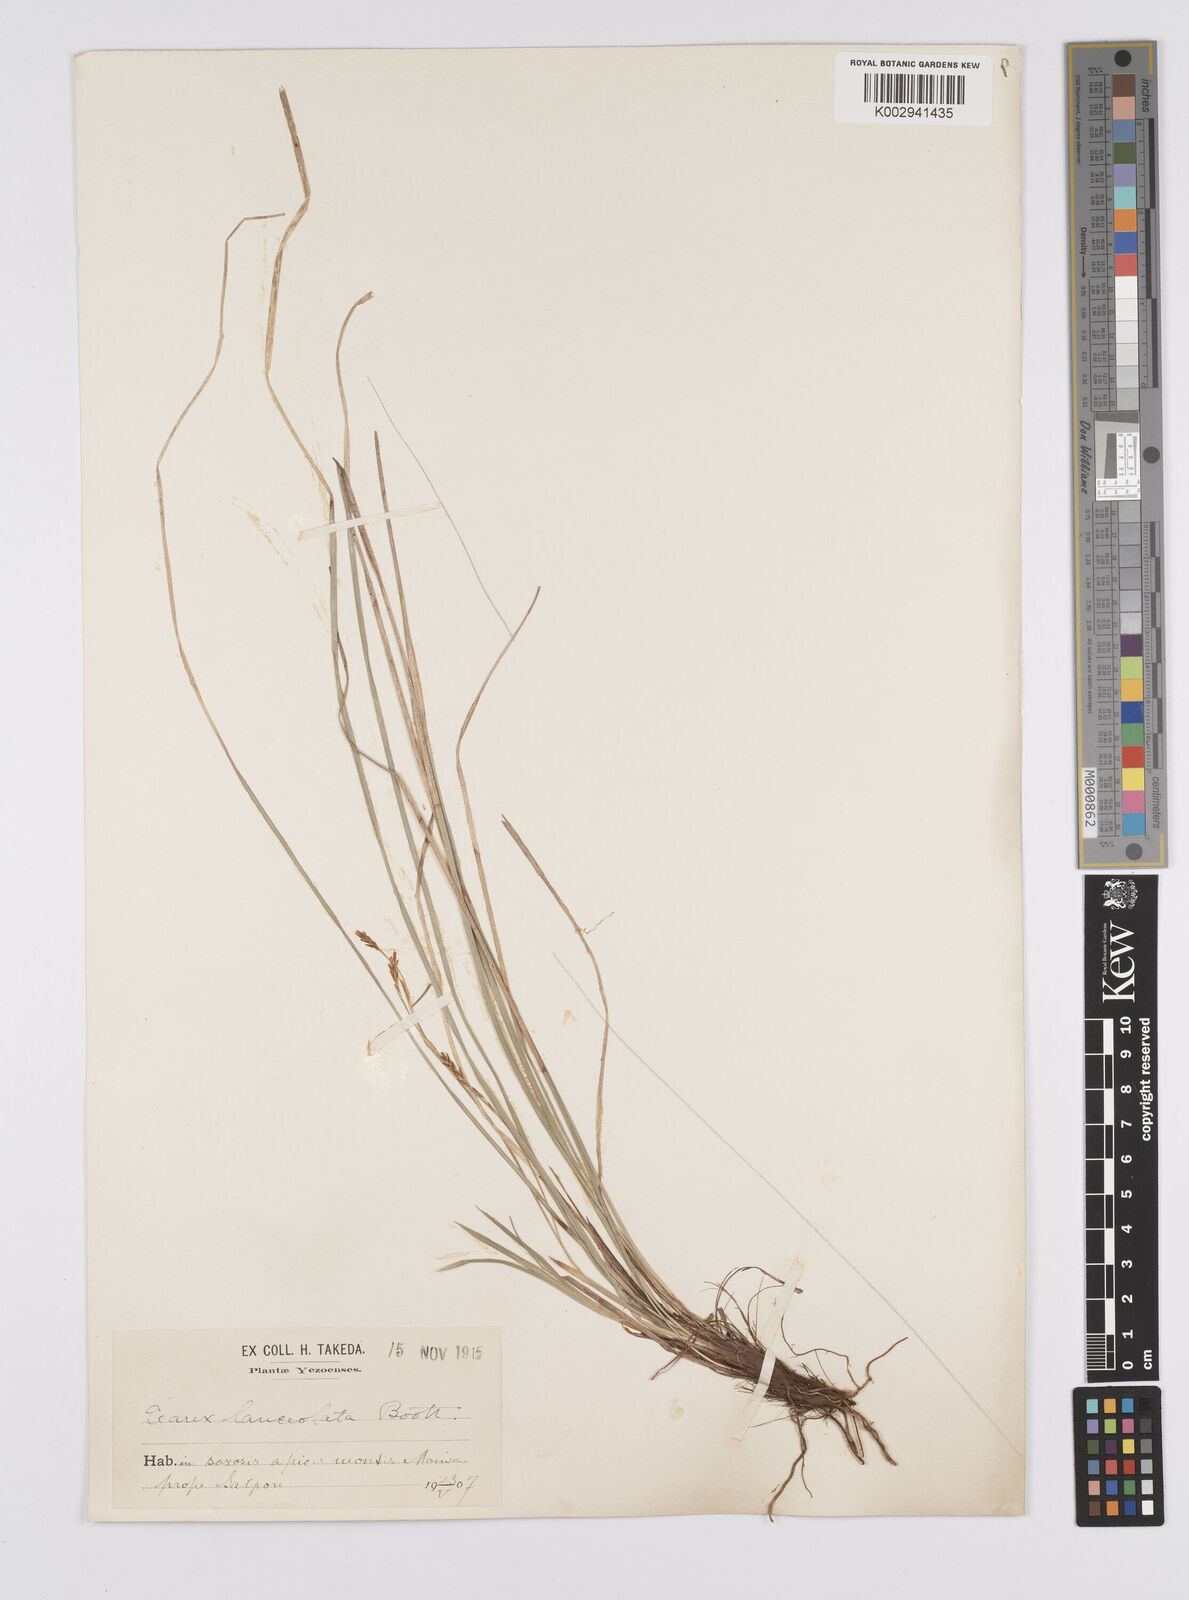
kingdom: Plantae
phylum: Tracheophyta
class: Liliopsida
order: Poales
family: Cyperaceae
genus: Carex
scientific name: Carex lanceolata
